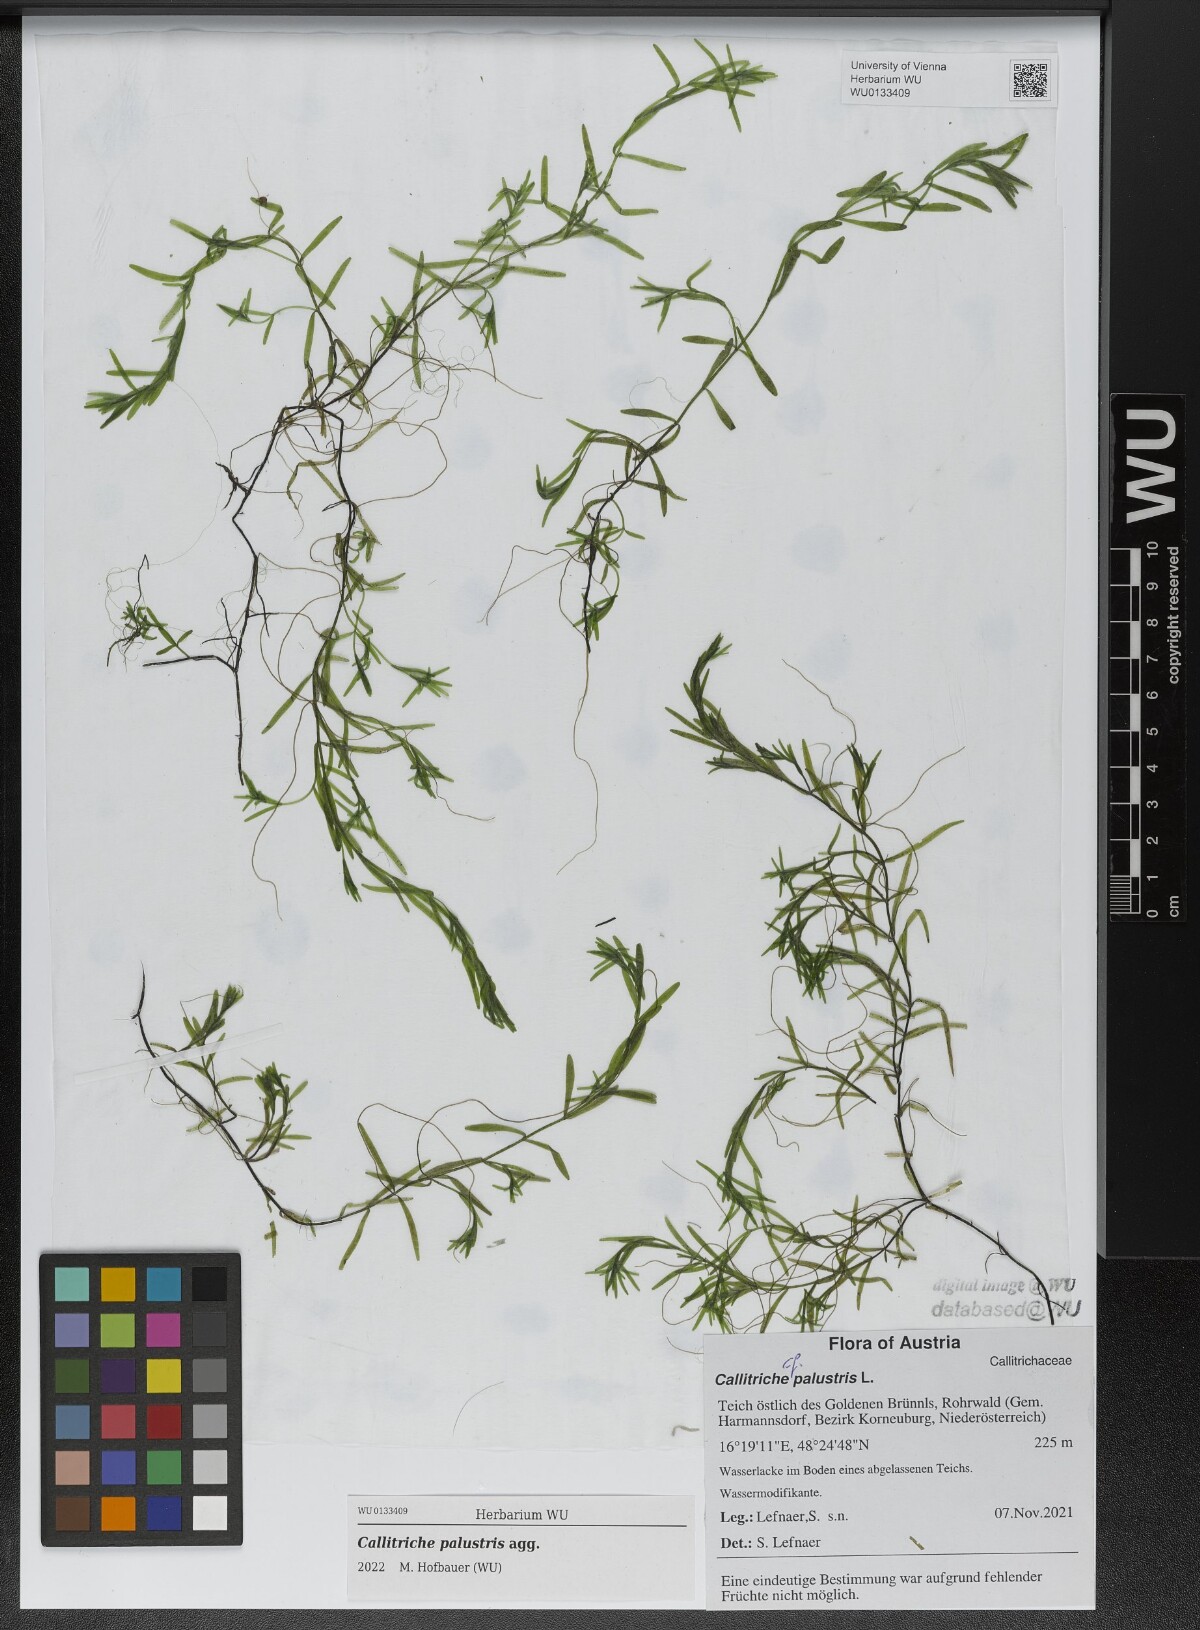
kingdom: Plantae
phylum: Tracheophyta
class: Magnoliopsida
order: Lamiales
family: Plantaginaceae
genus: Callitriche
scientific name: Callitriche palustris
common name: Spring water-starwort
